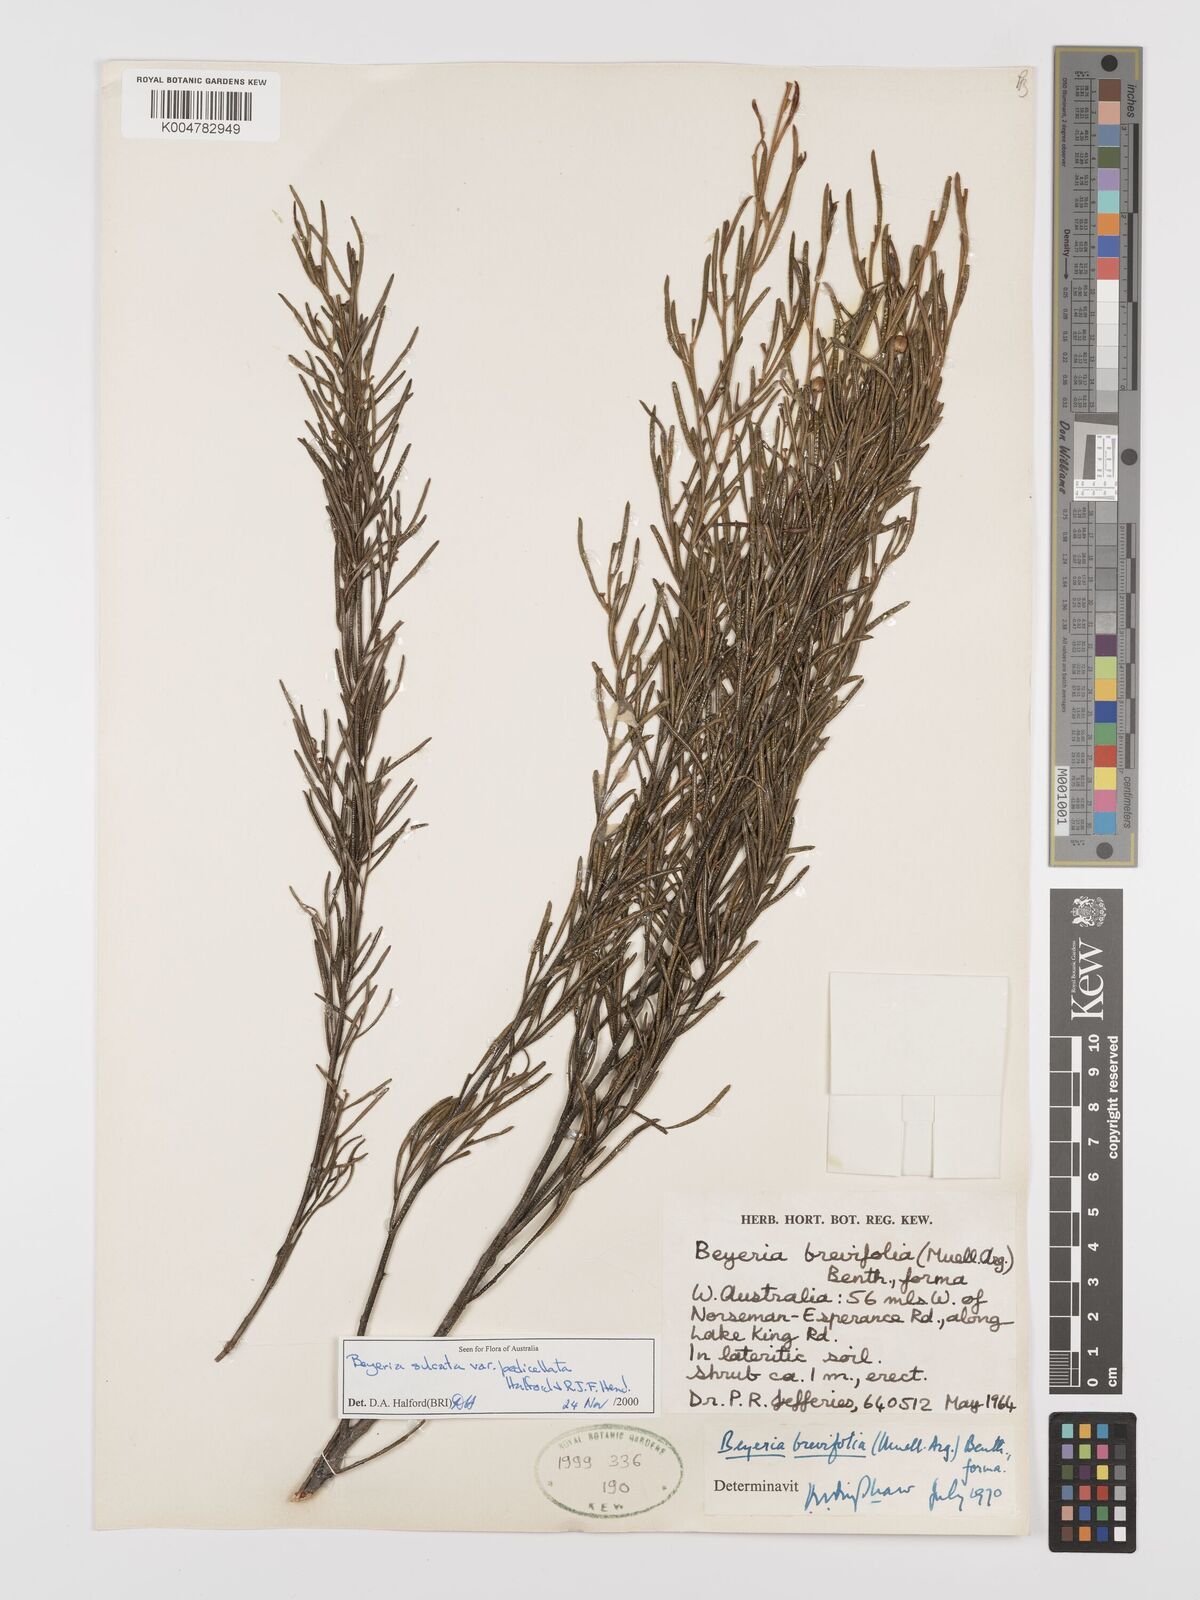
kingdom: Plantae
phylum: Tracheophyta
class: Magnoliopsida
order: Malpighiales
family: Euphorbiaceae
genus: Beyeria
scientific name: Beyeria sulcata
